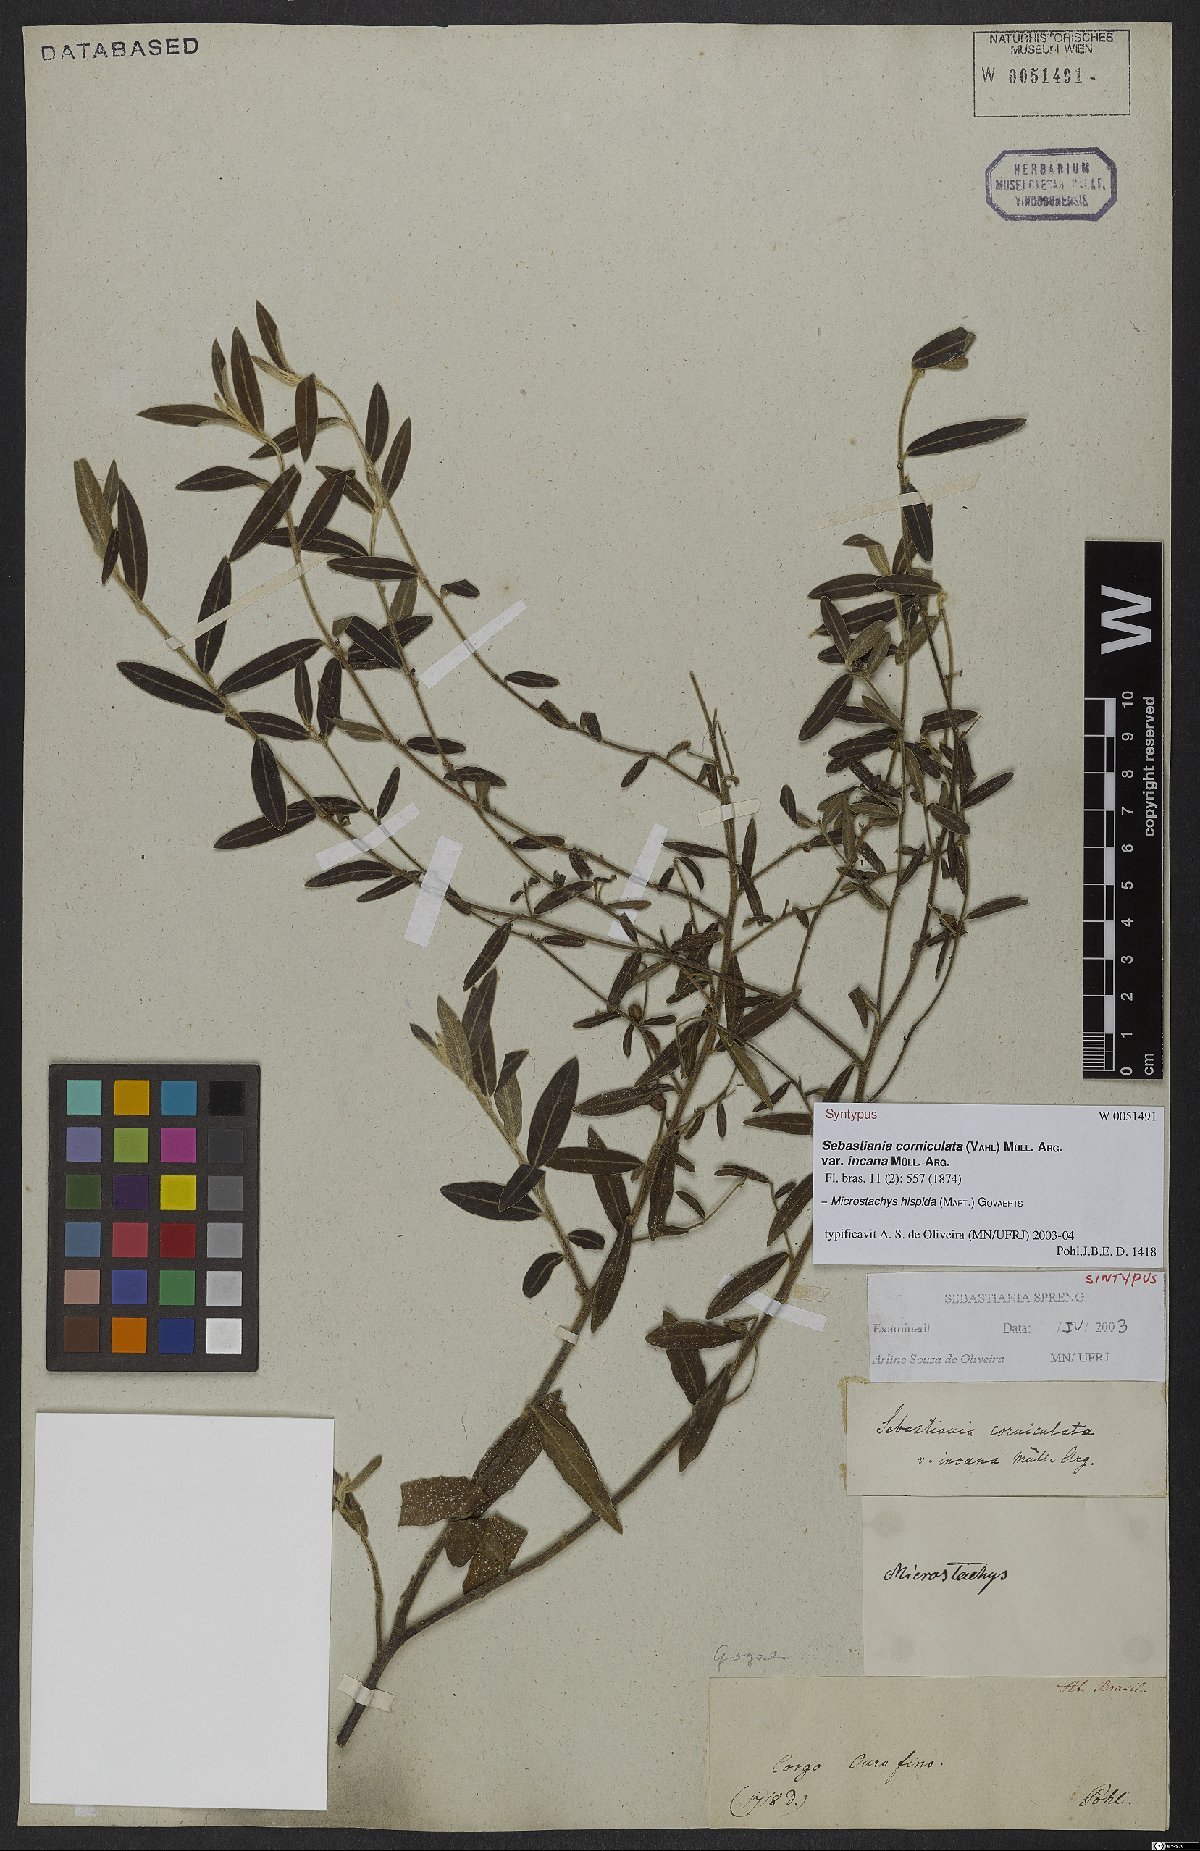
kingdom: Plantae
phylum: Tracheophyta
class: Magnoliopsida
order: Malpighiales
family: Euphorbiaceae
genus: Microstachys
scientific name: Microstachys hispida
